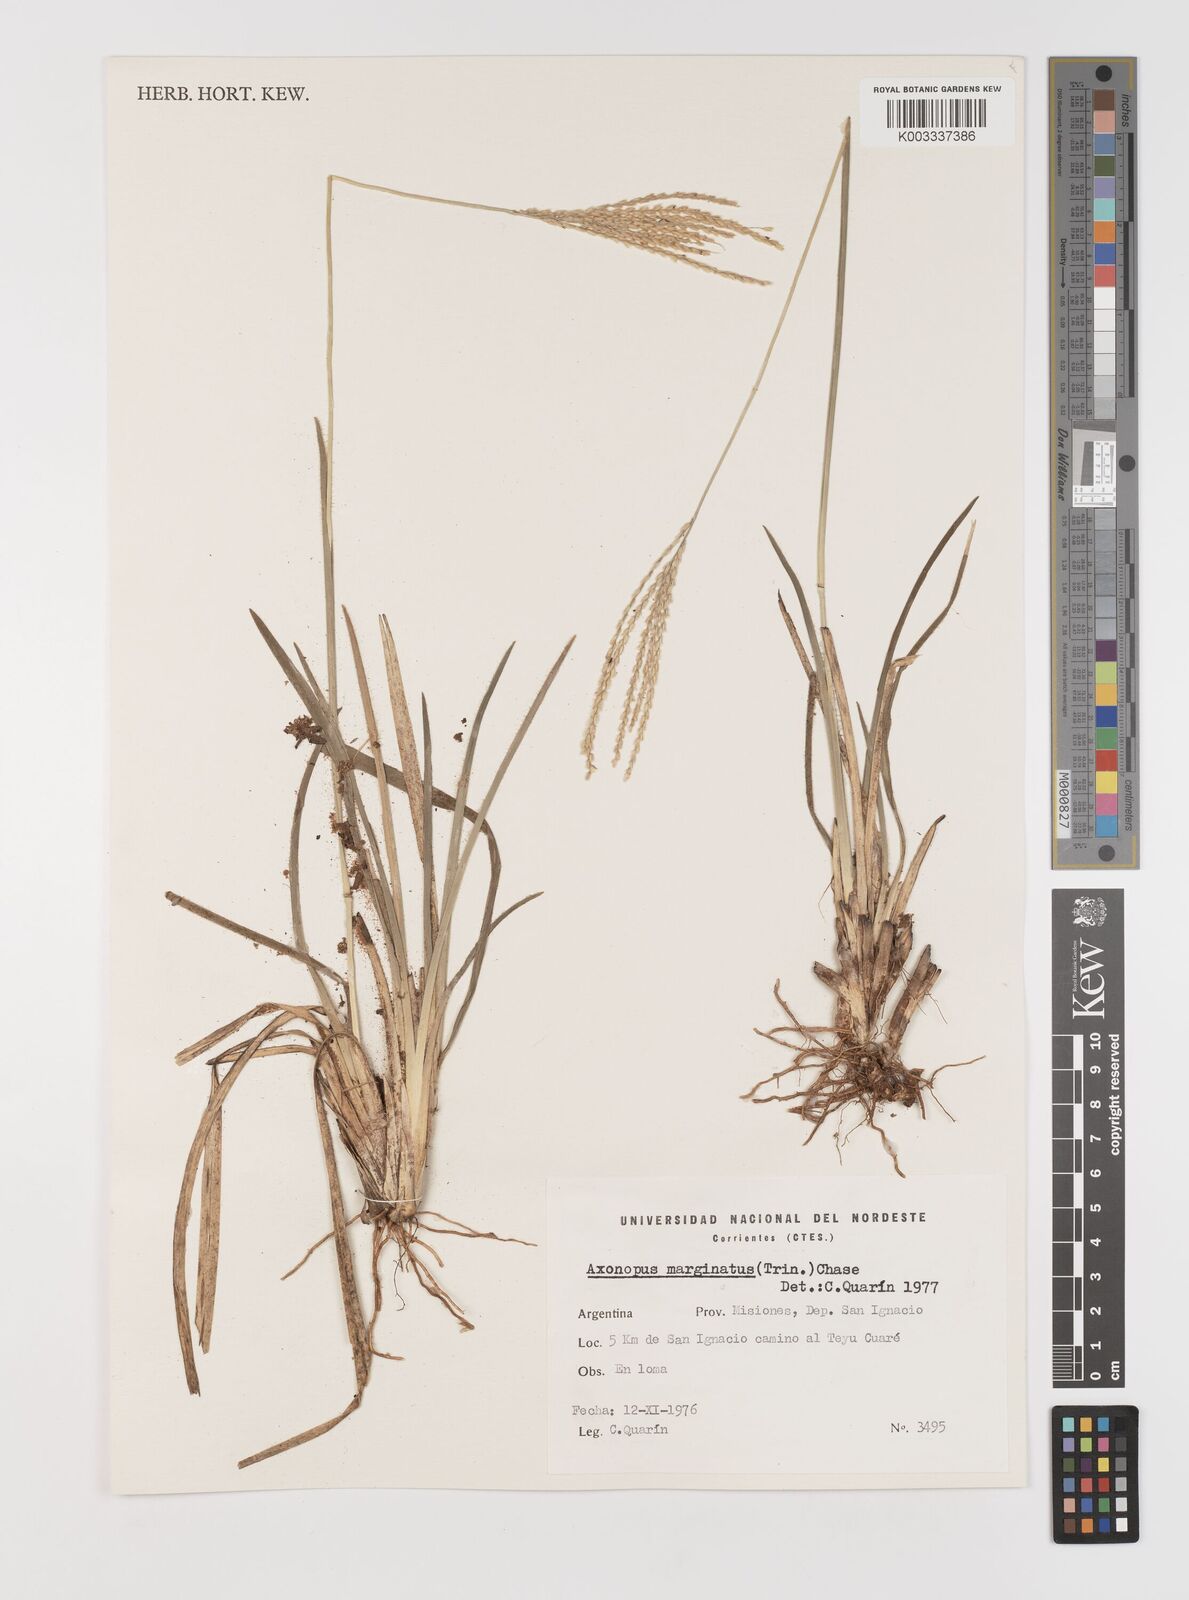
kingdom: Plantae
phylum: Tracheophyta
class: Liliopsida
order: Poales
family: Poaceae
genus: Axonopus
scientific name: Axonopus marginatus
